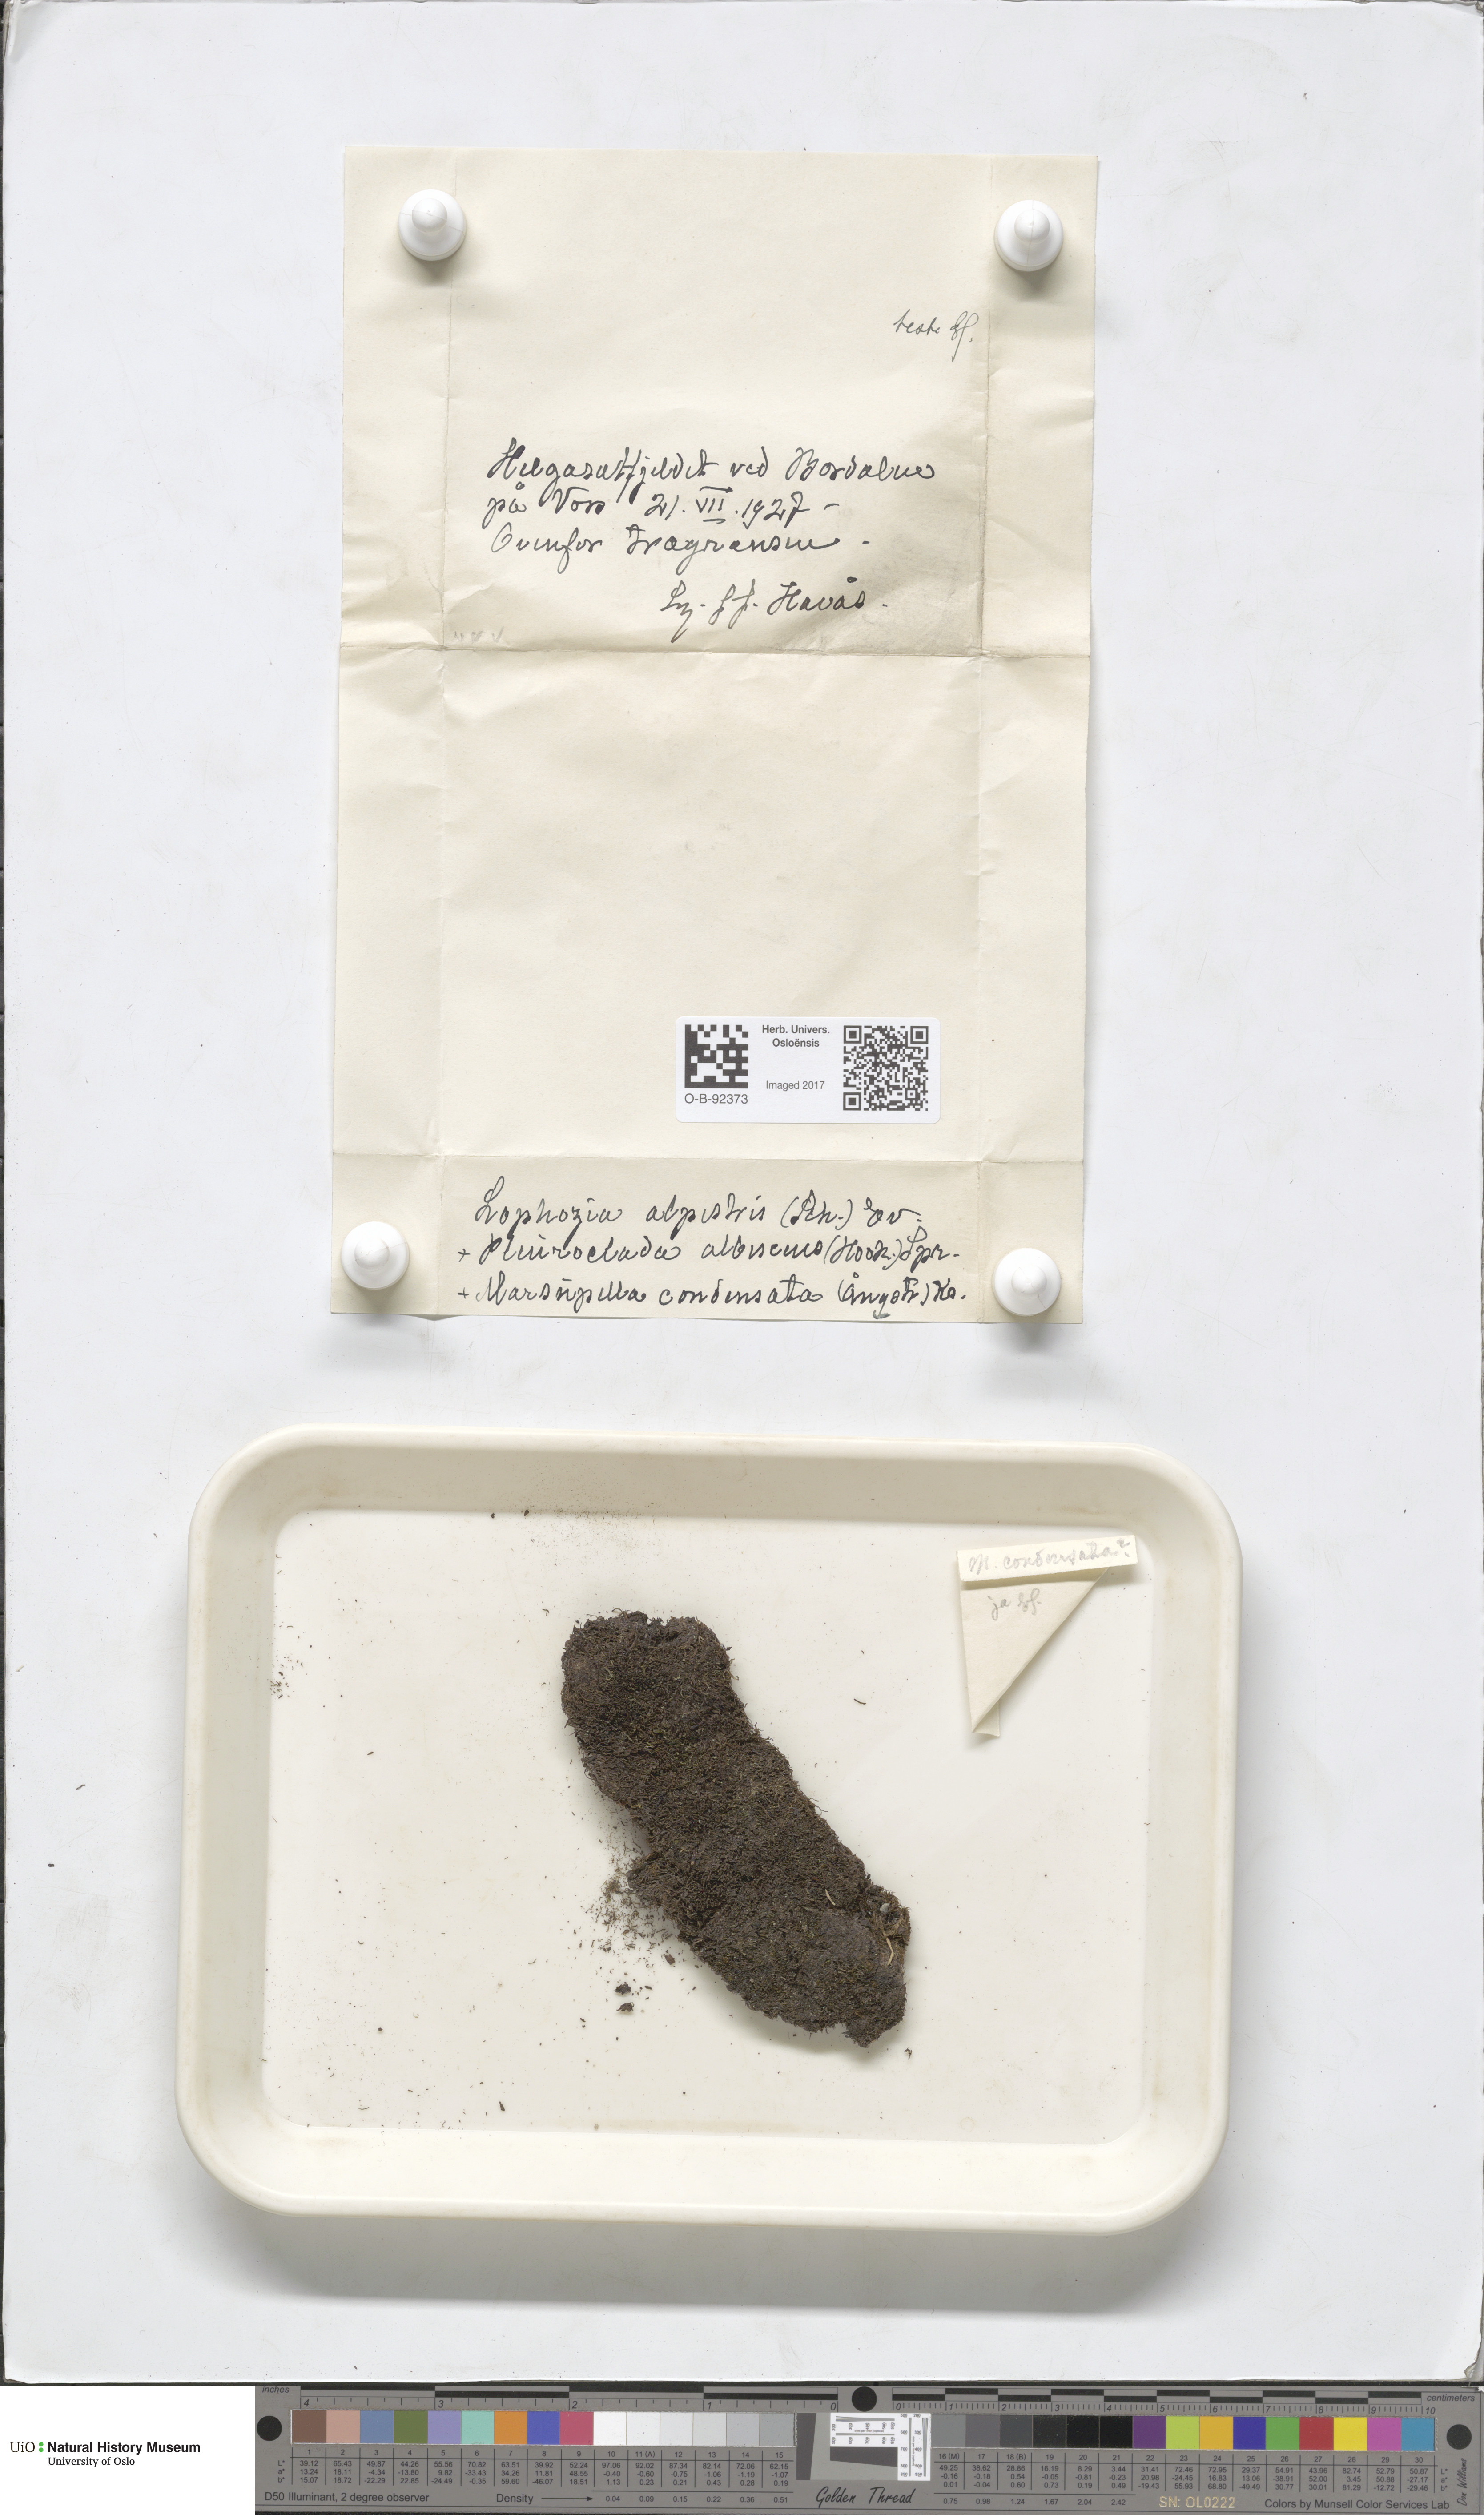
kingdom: Plantae
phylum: Marchantiophyta
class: Jungermanniopsida
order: Jungermanniales
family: Anastrophyllaceae
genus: Barbilophozia
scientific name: Barbilophozia sudetica
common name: Hill notchwort
